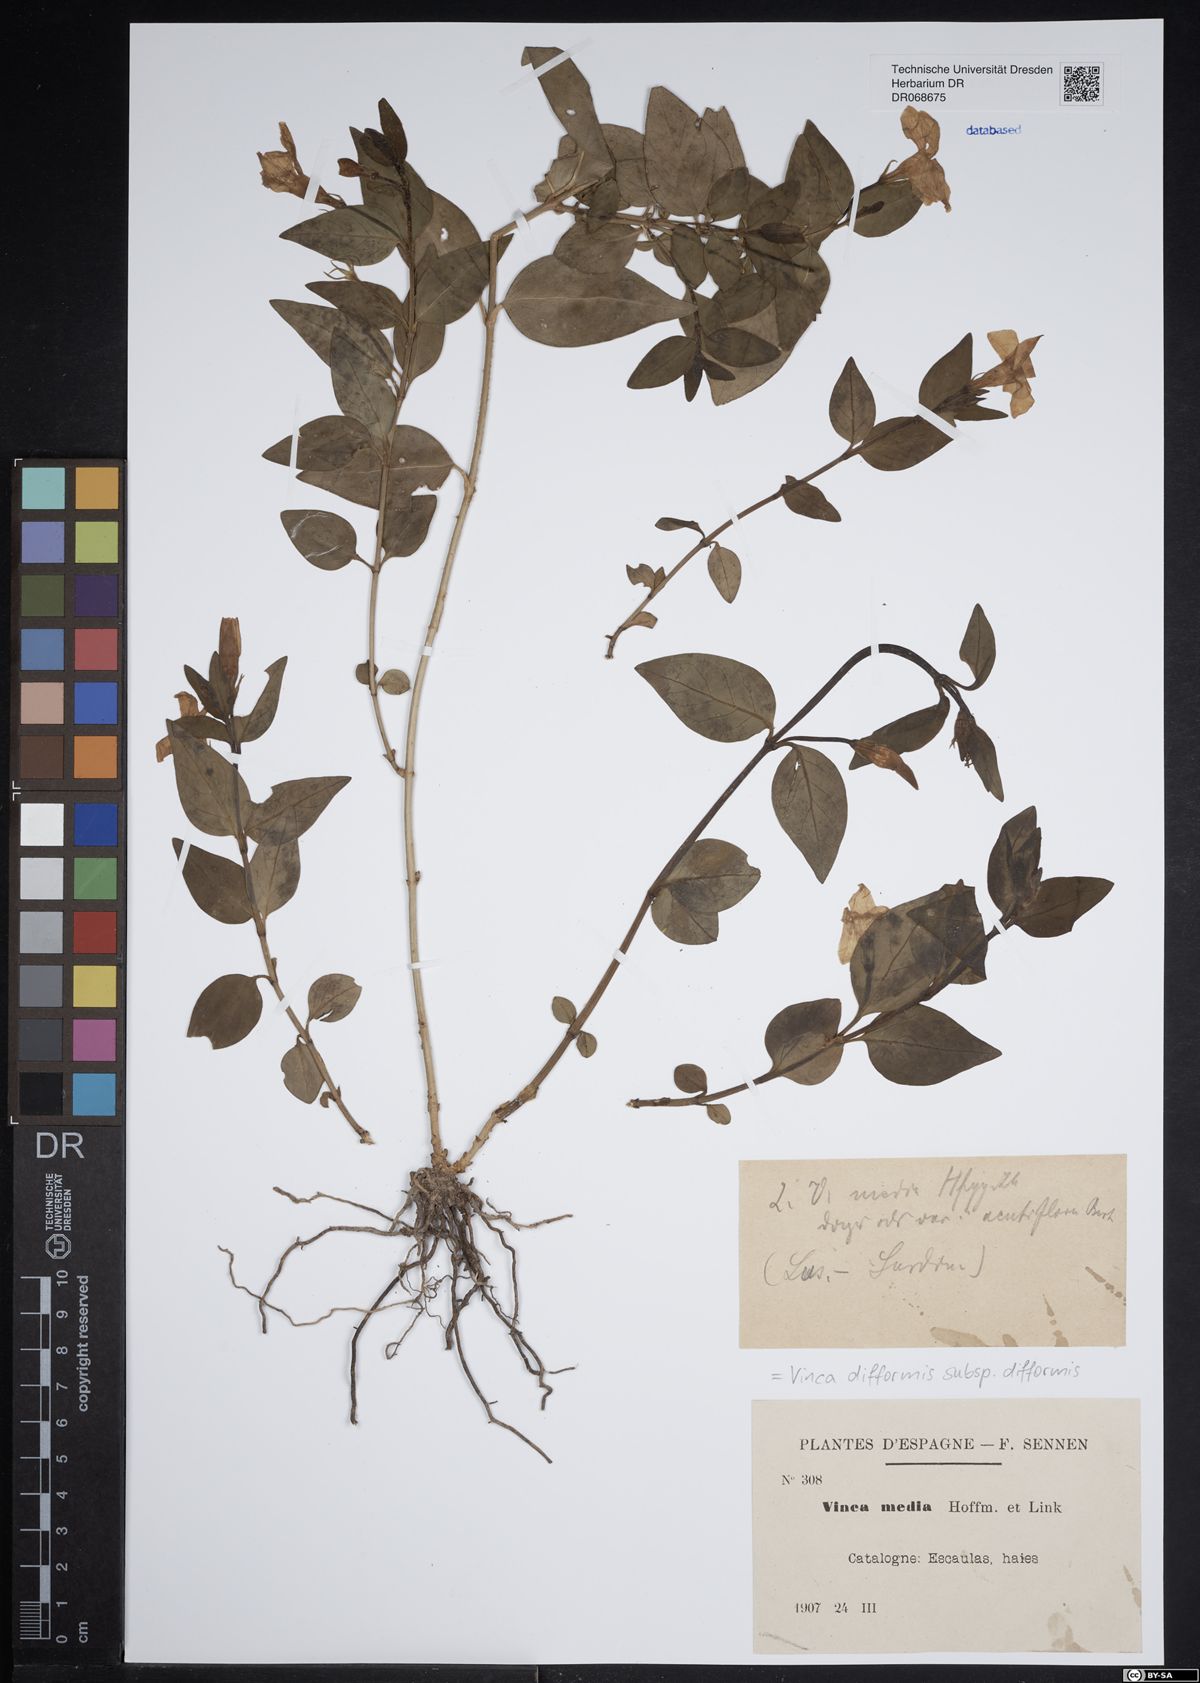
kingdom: Plantae
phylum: Tracheophyta
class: Magnoliopsida
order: Gentianales
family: Apocynaceae
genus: Vinca
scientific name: Vinca difformis
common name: Intermediate periwinkle
